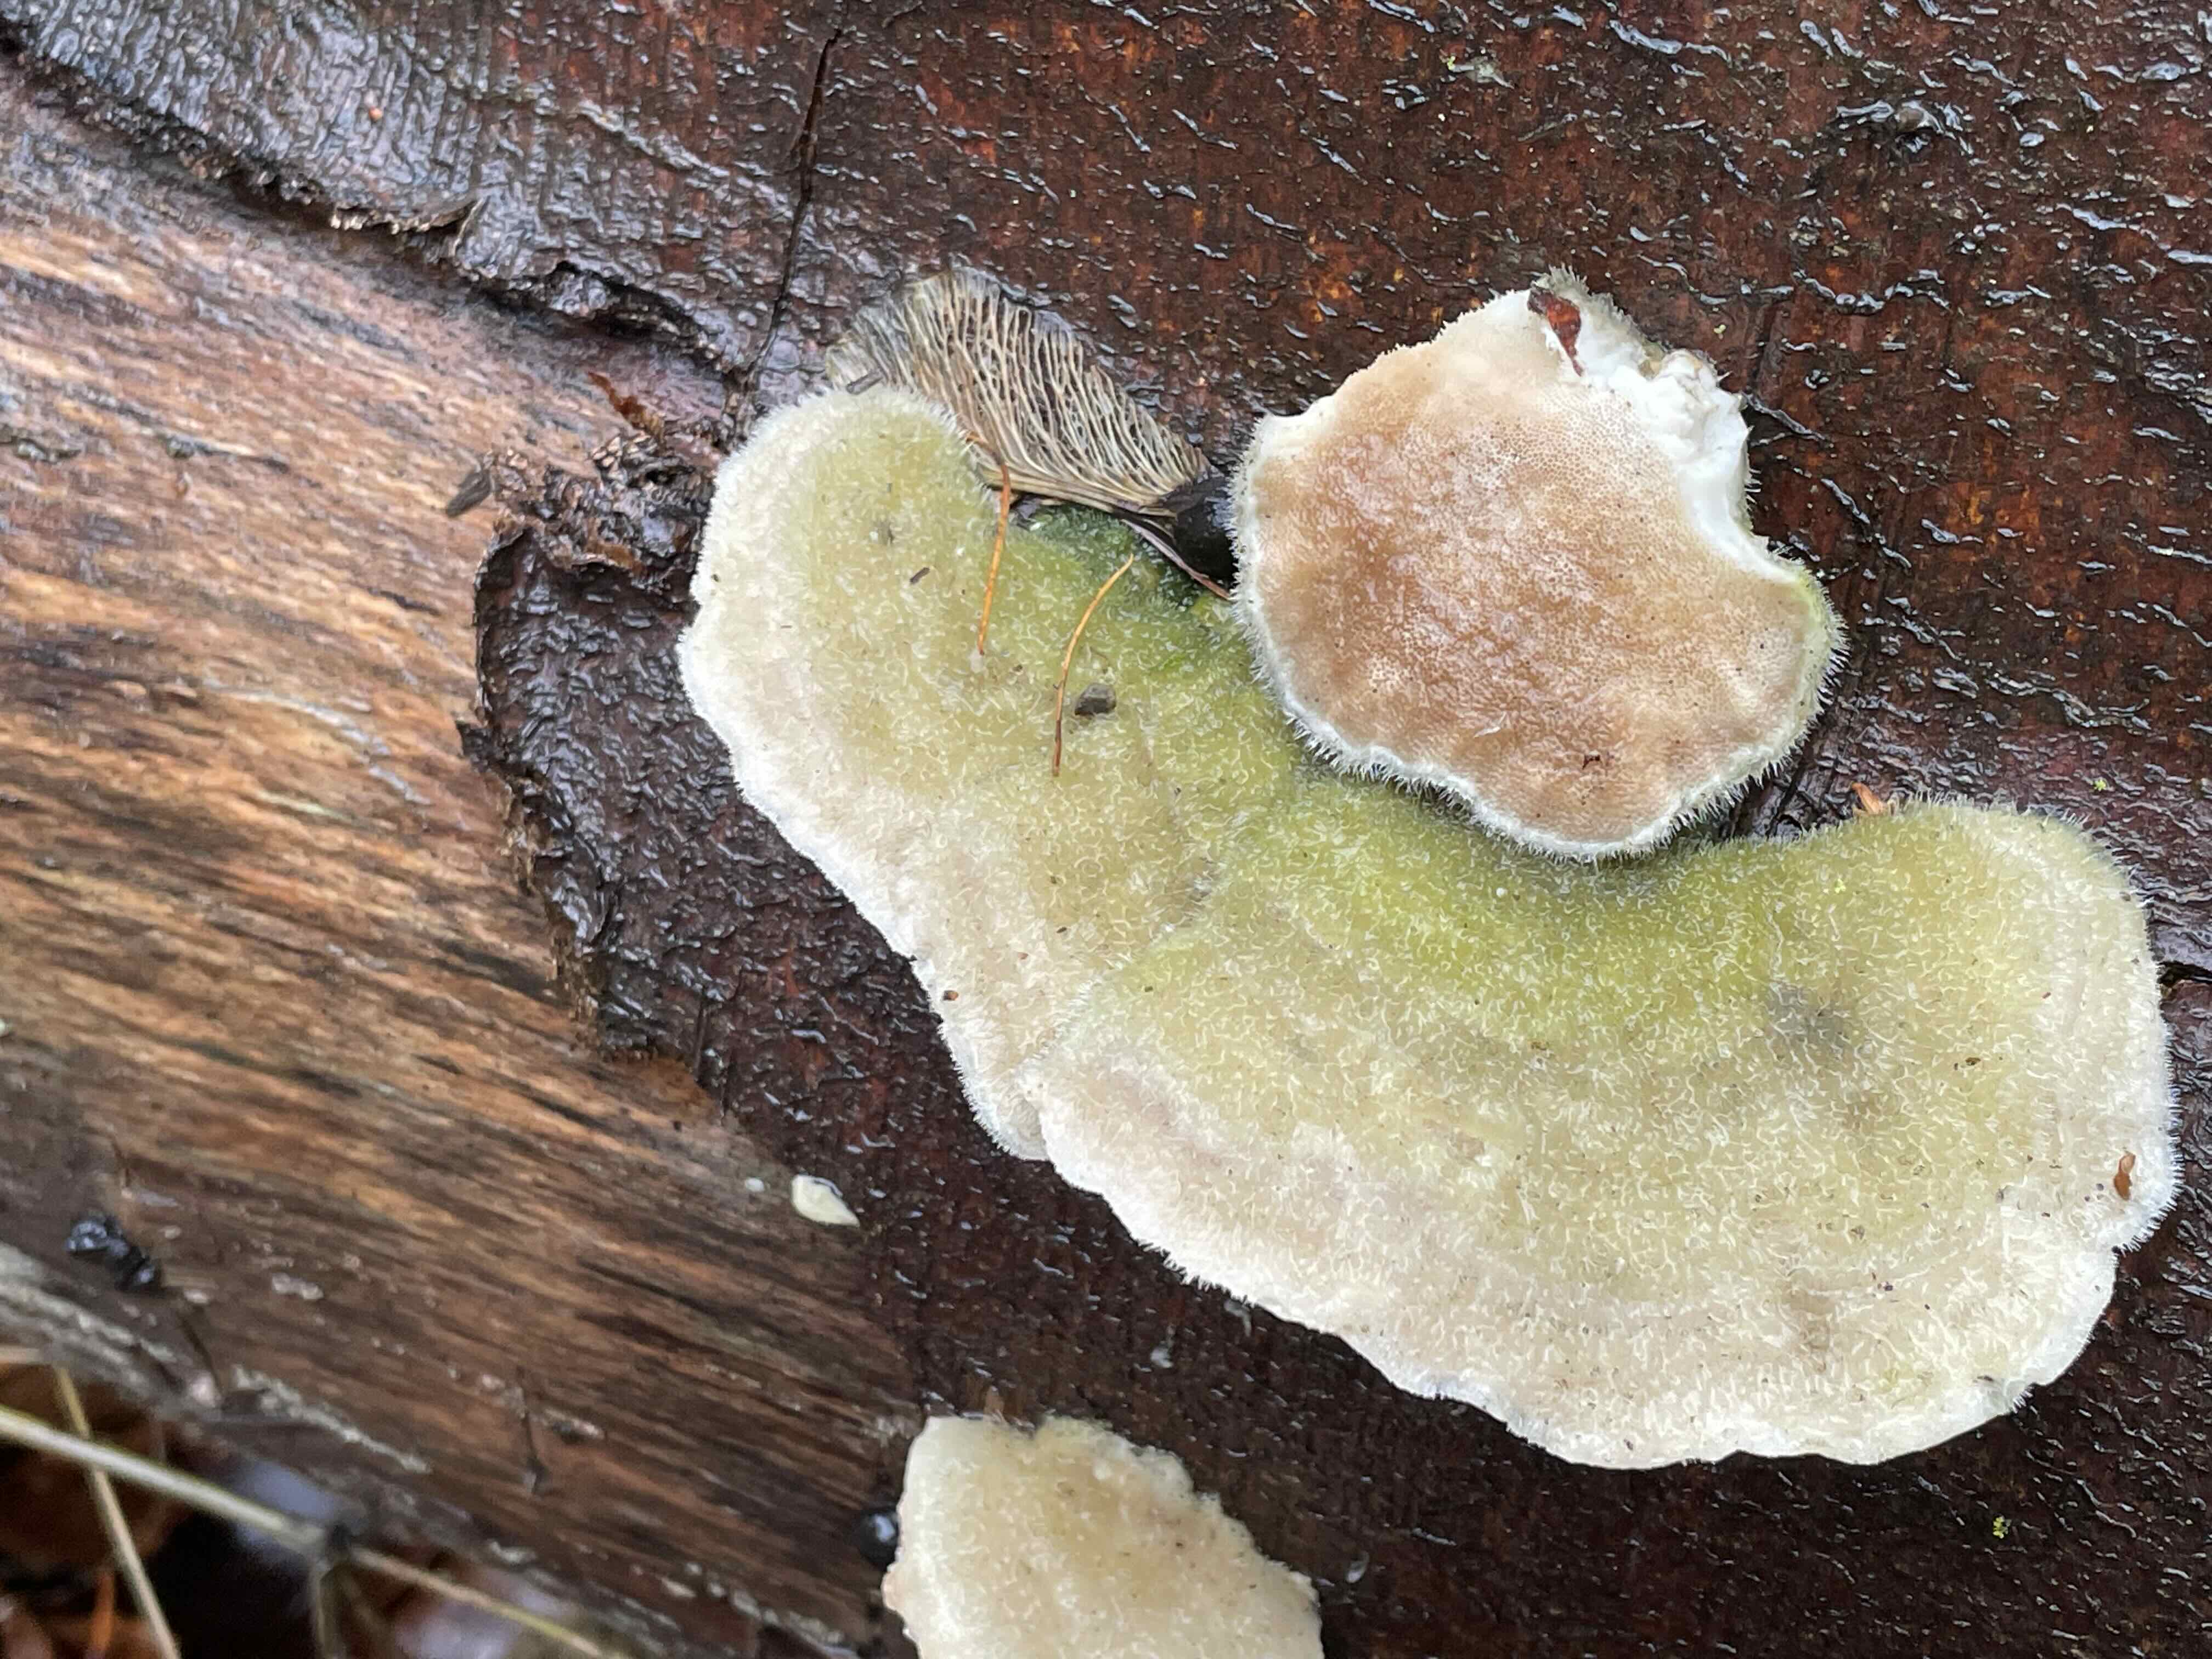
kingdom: Fungi
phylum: Basidiomycota
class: Agaricomycetes
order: Polyporales
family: Polyporaceae
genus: Trametes
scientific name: Trametes hirsuta
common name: håret læderporesvamp
